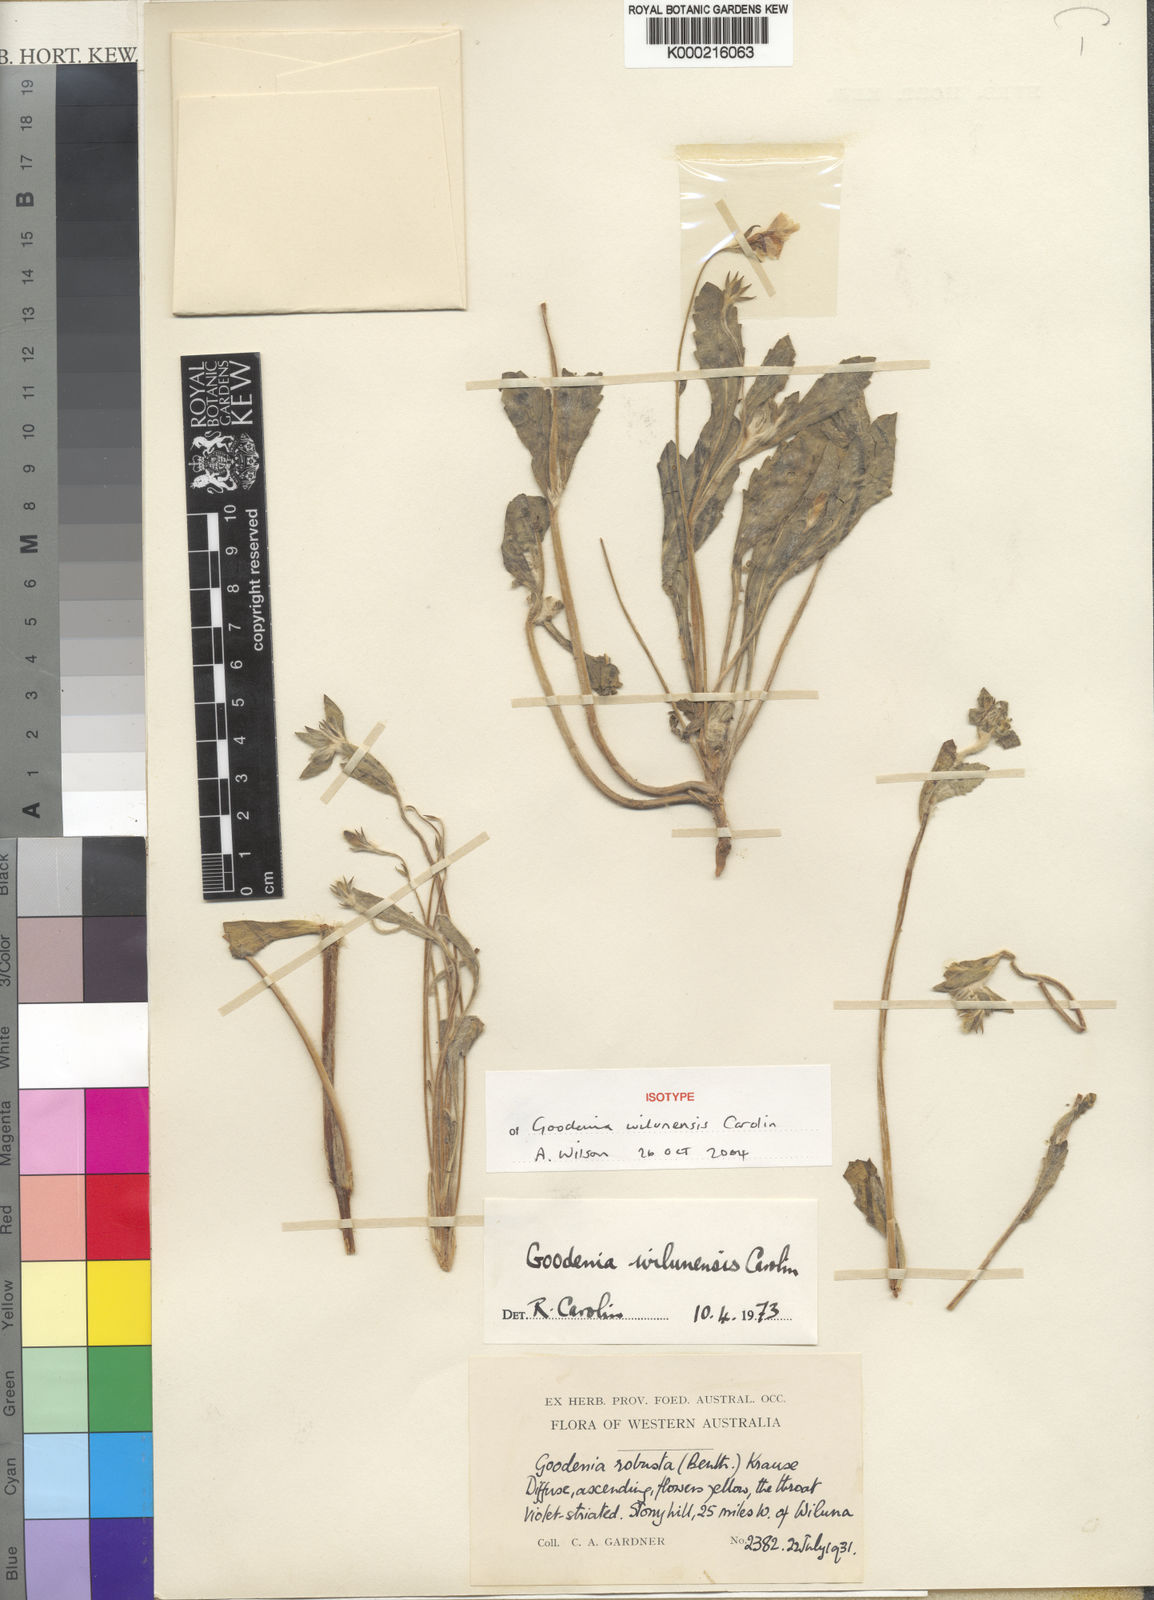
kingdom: Plantae
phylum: Tracheophyta
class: Magnoliopsida
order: Asterales
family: Goodeniaceae
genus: Goodenia
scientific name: Goodenia wilunensis
